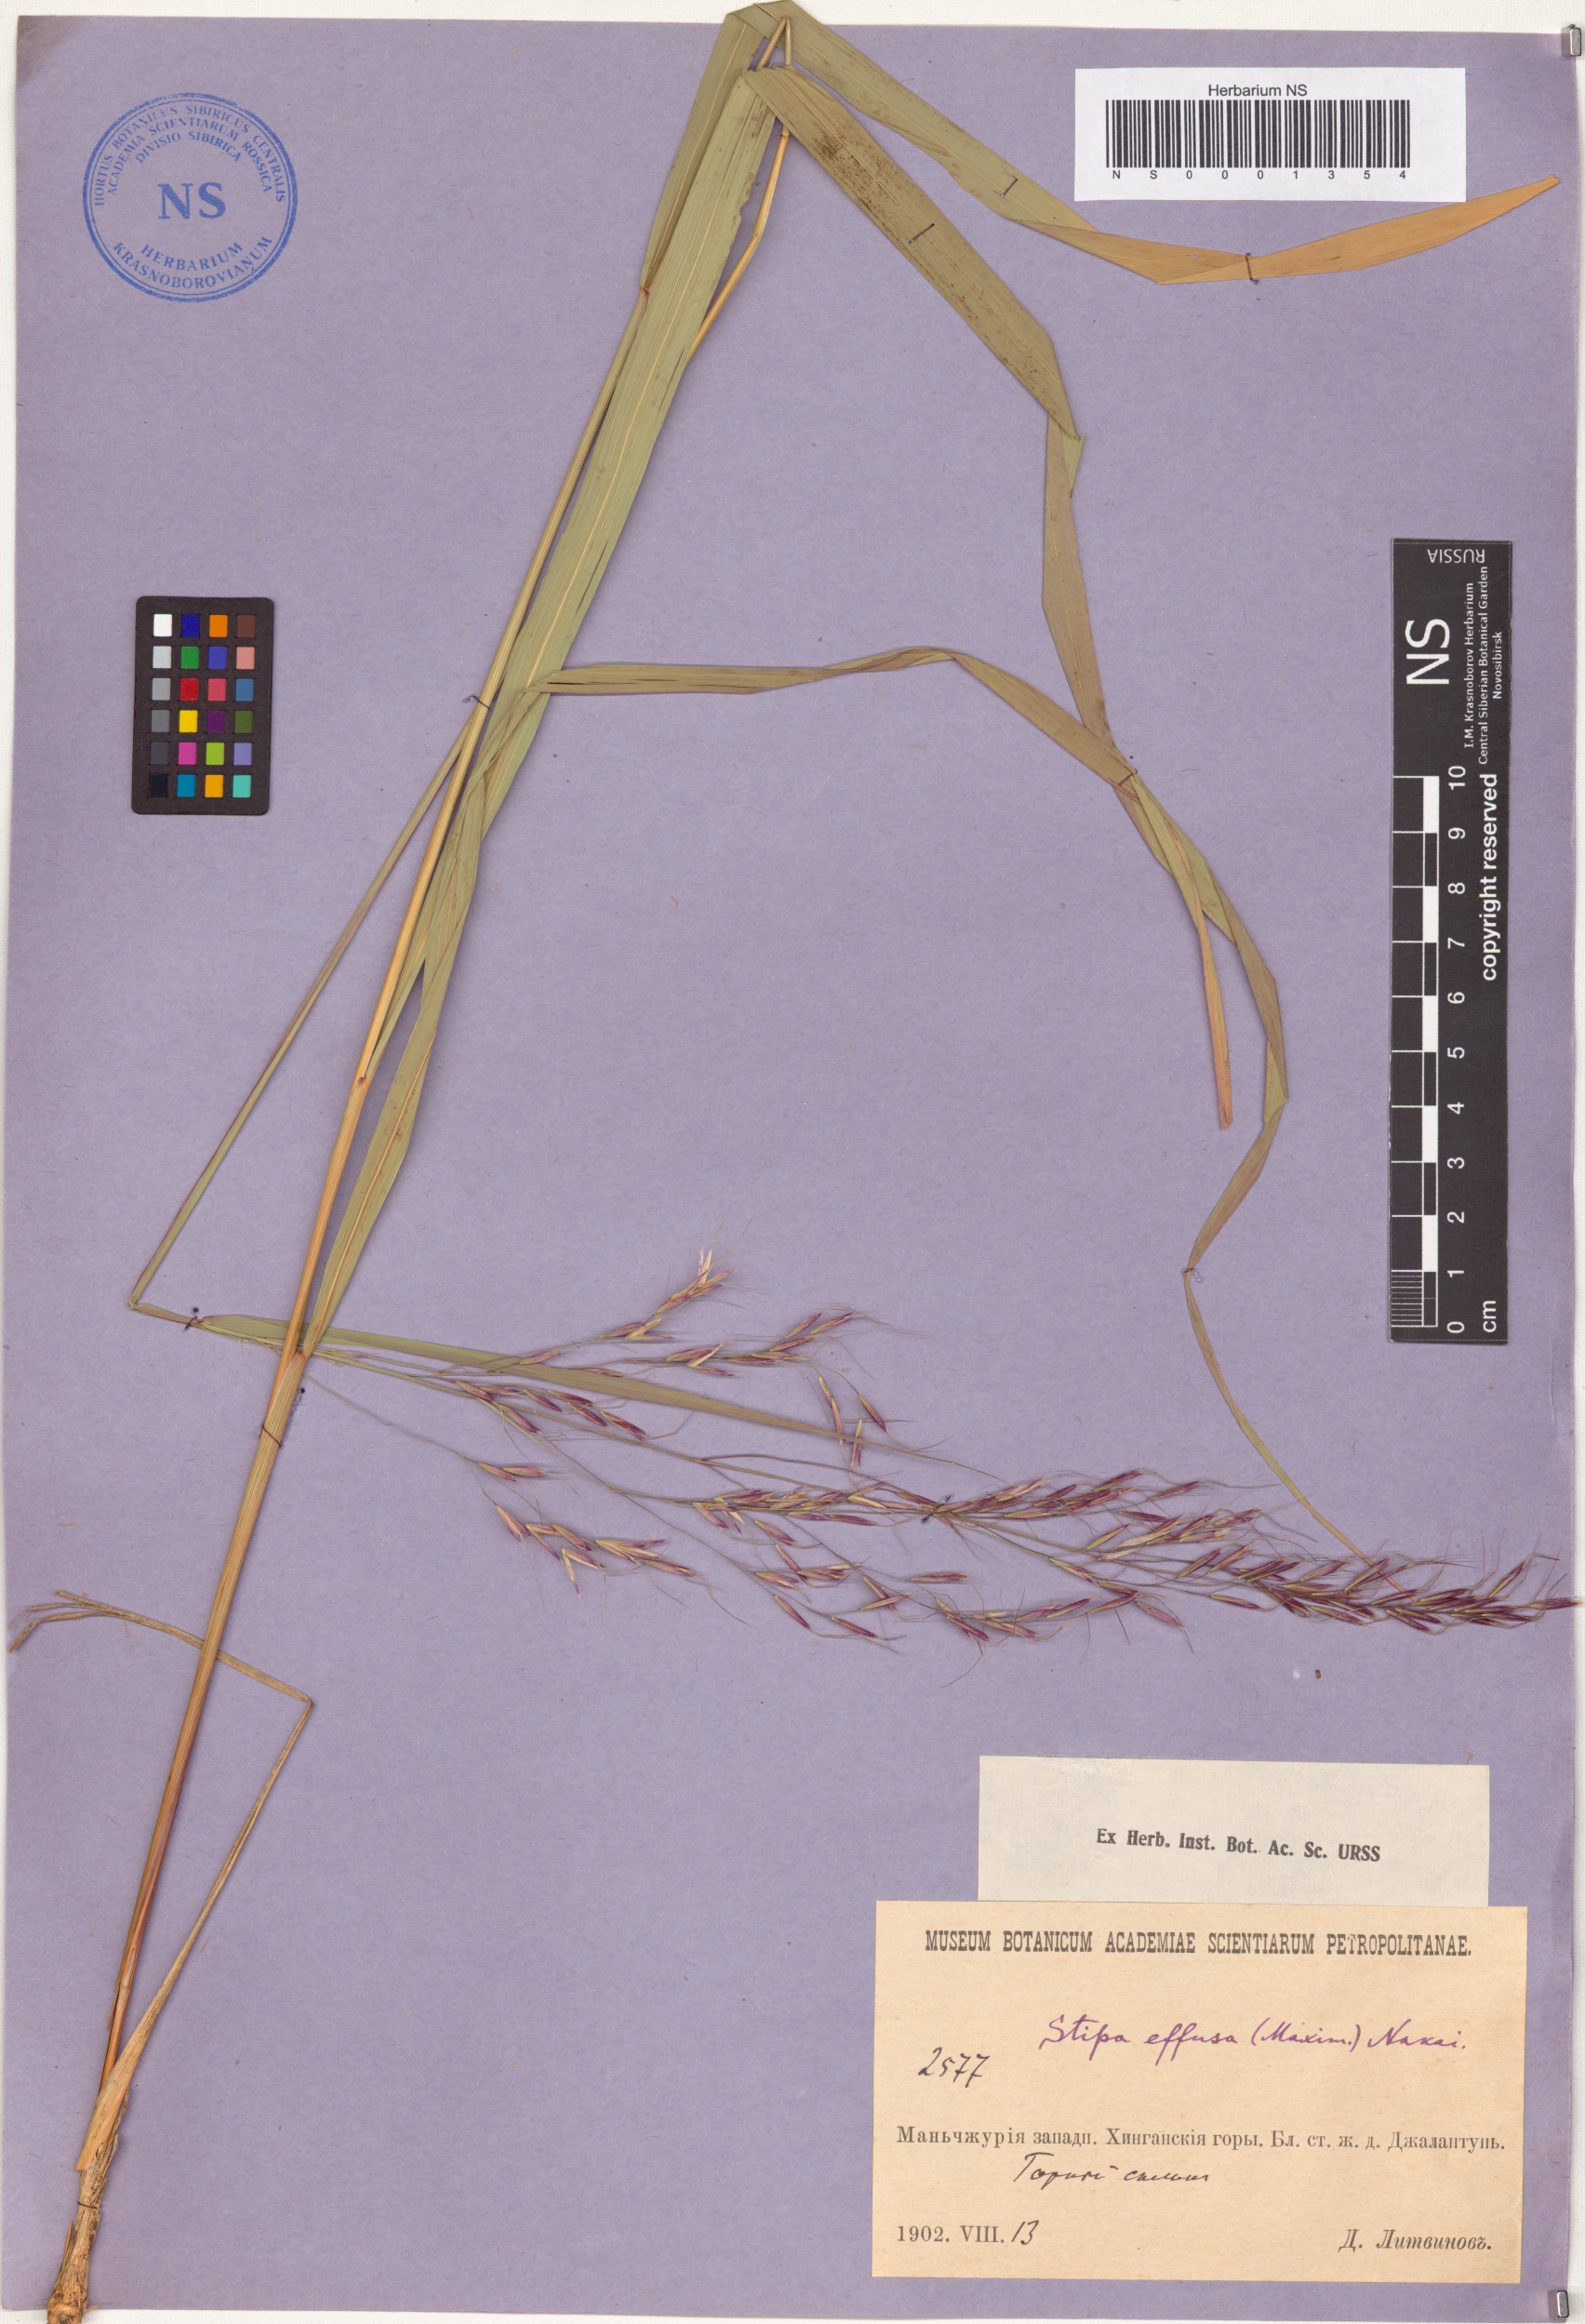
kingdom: Plantae
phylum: Tracheophyta
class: Liliopsida
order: Poales
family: Poaceae
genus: Achnatherum
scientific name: Achnatherum pekinense
